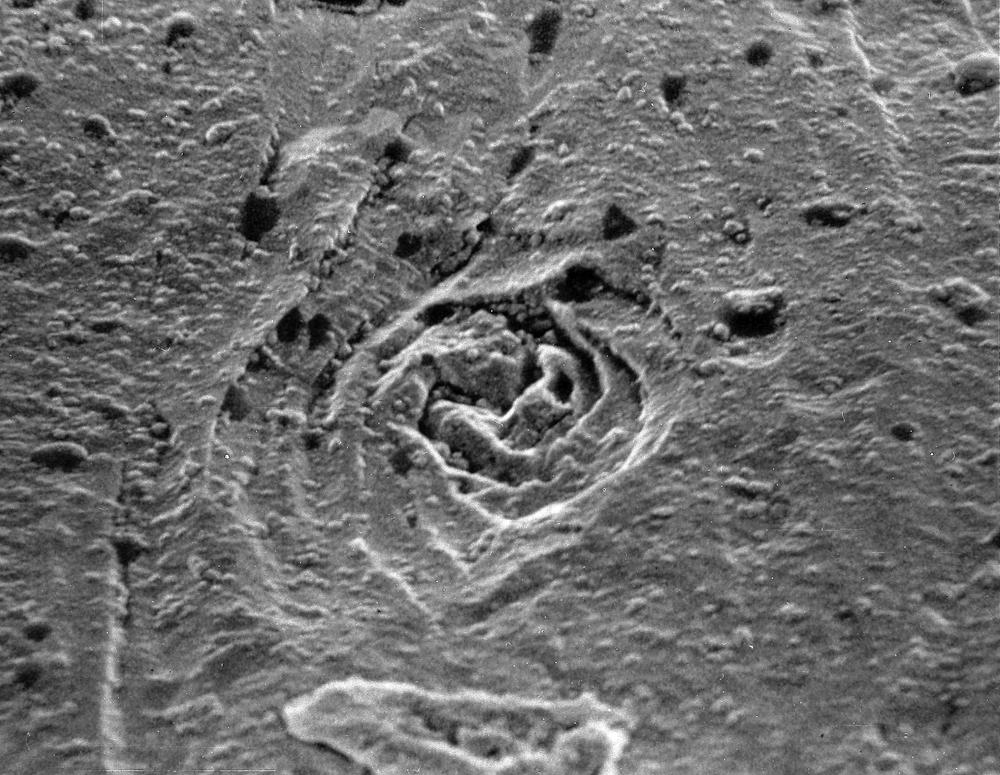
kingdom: Animalia
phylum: Brachiopoda
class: Rhynchonellata
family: Draboviidae
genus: Oanduporella
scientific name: Oanduporella reticulata
